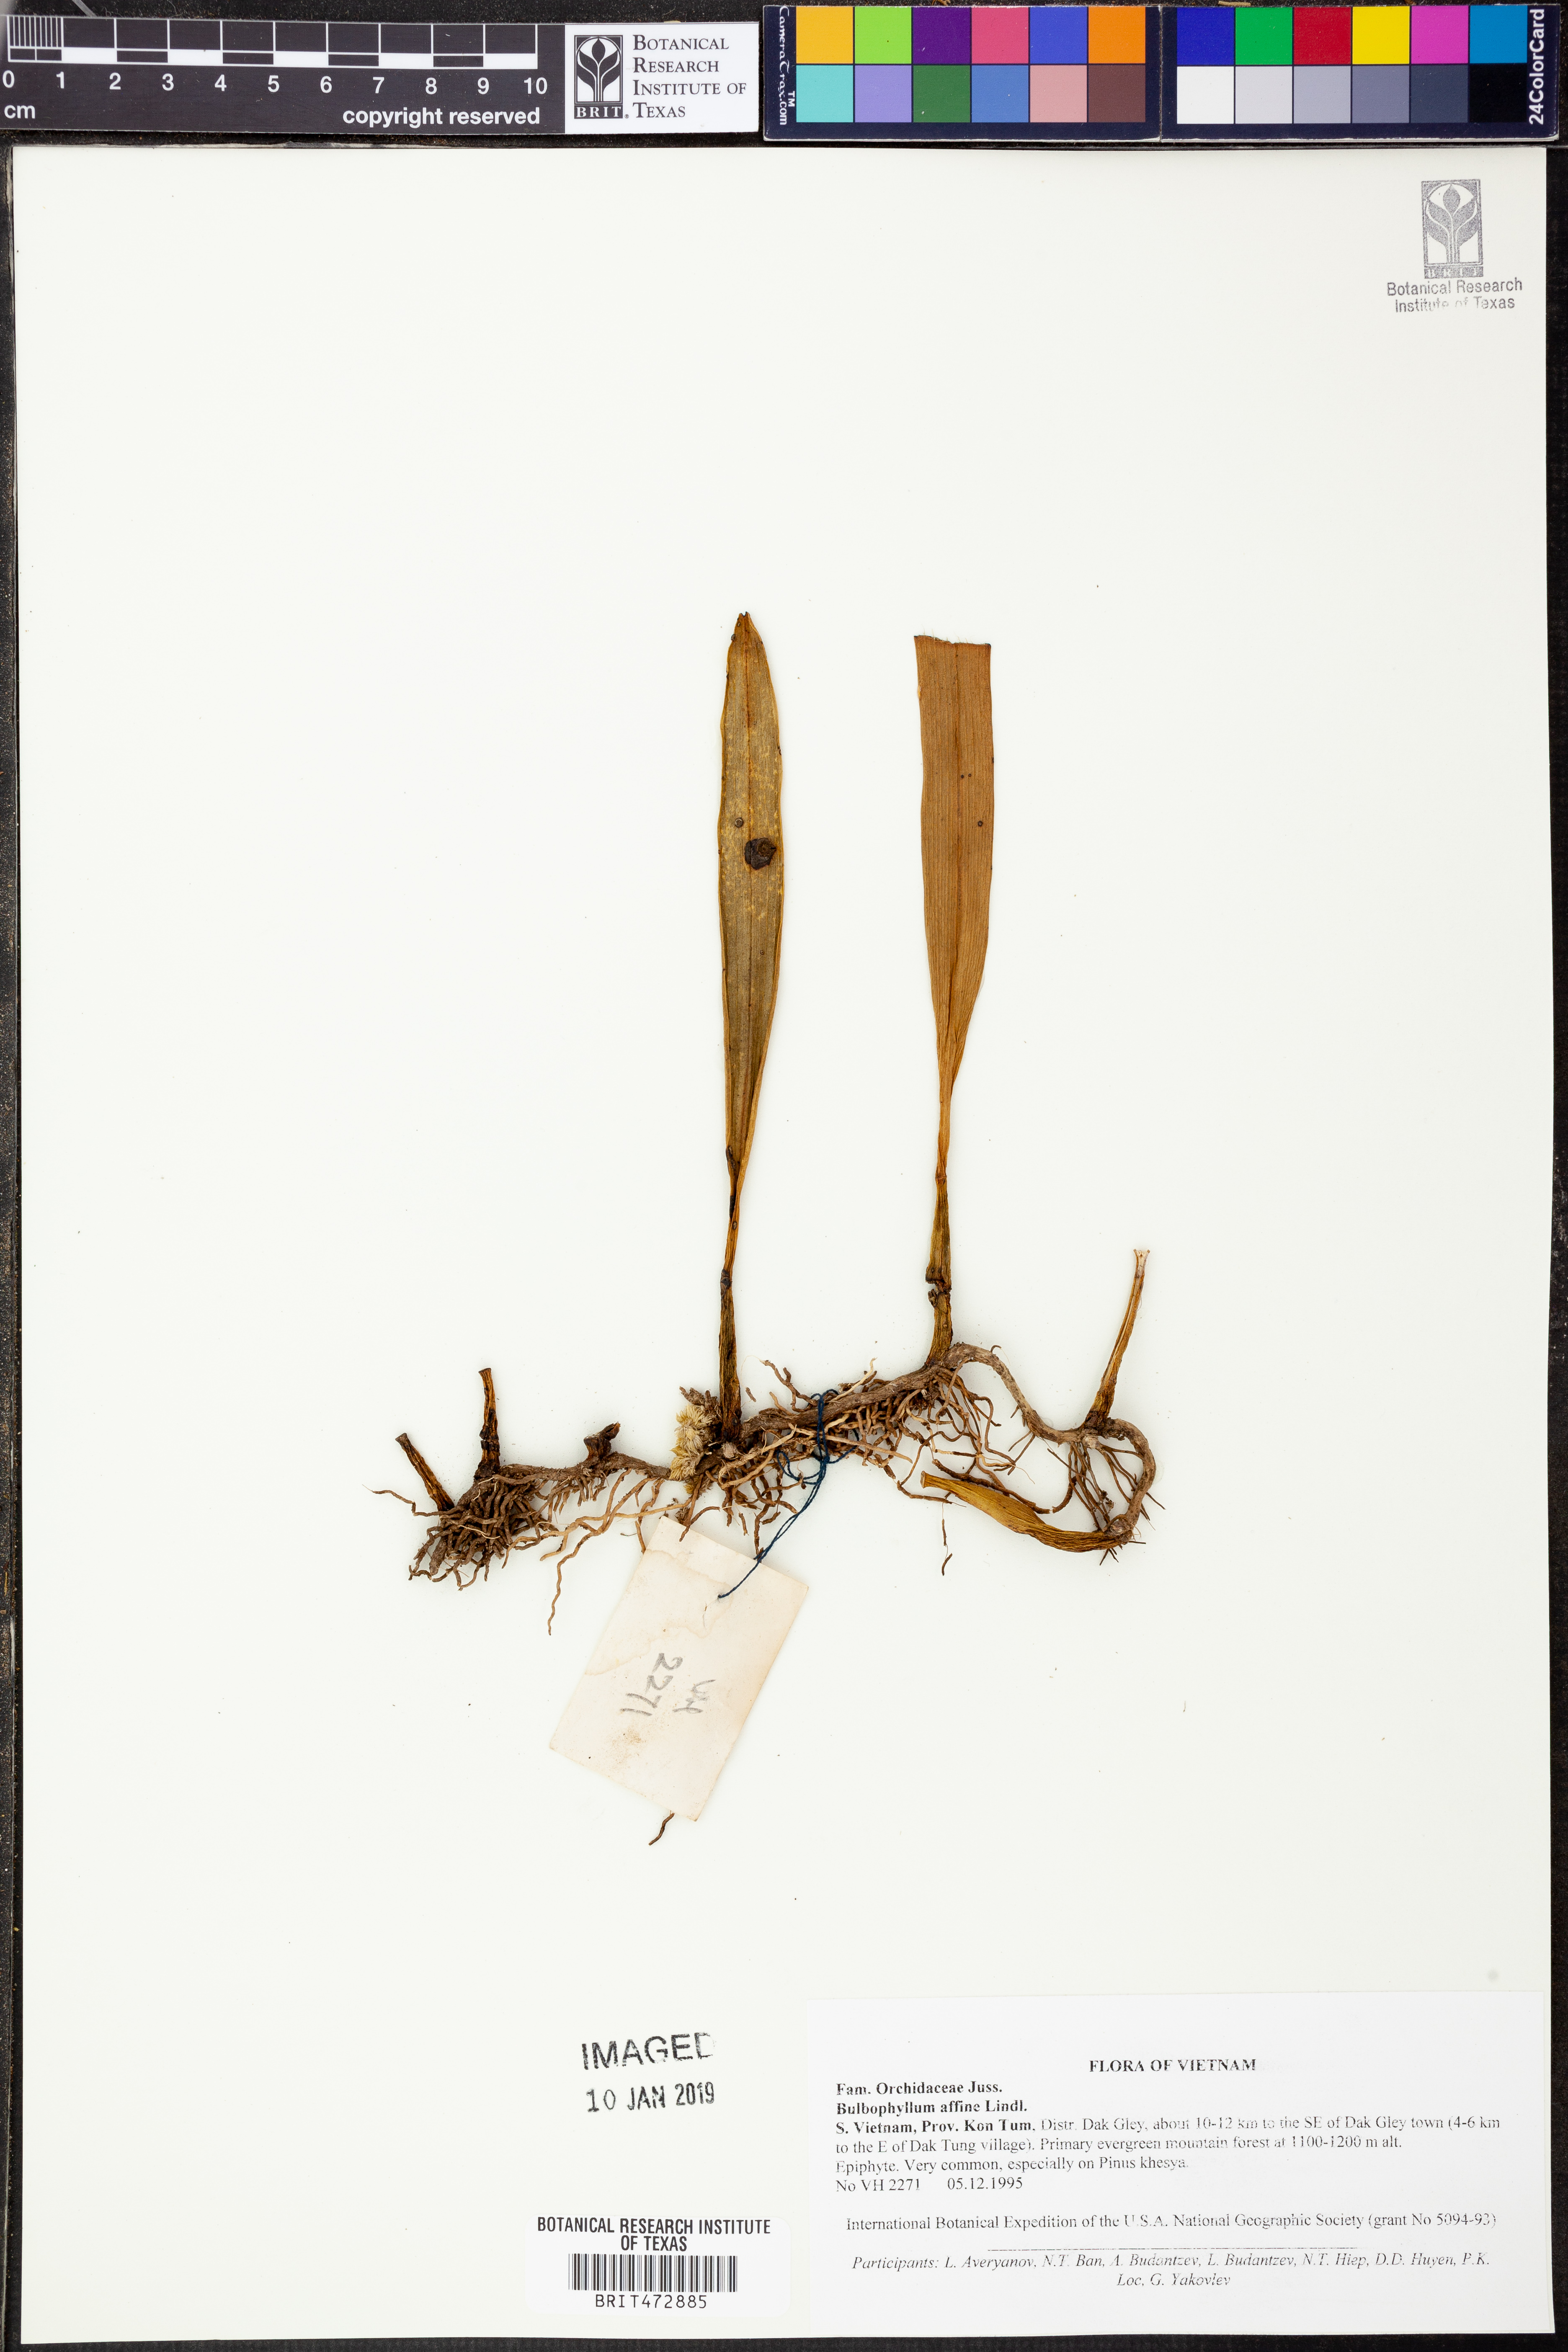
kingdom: Plantae
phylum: Tracheophyta
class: Liliopsida
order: Asparagales
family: Orchidaceae
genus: Bulbophyllum
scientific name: Bulbophyllum affine
